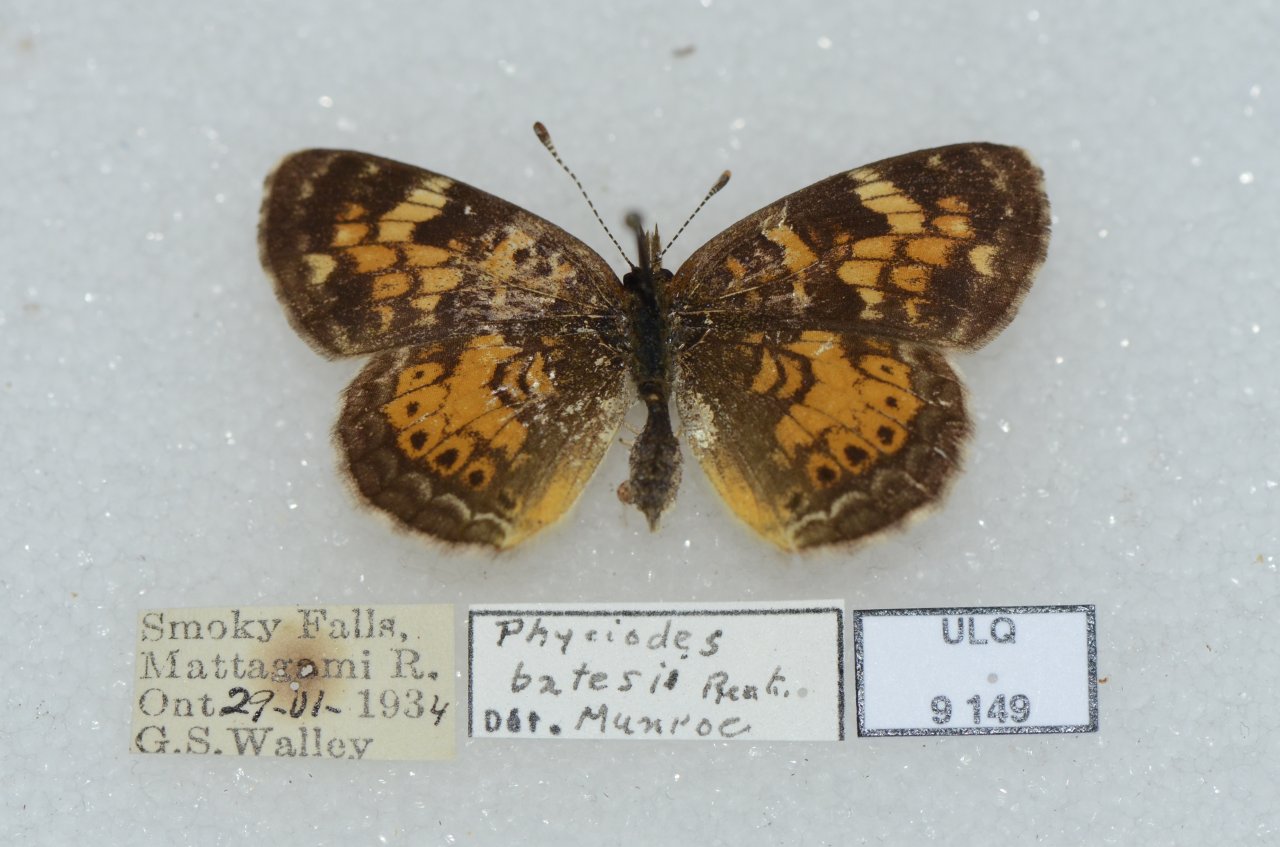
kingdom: Animalia
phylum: Arthropoda
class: Insecta
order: Lepidoptera
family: Nymphalidae
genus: Phyciodes
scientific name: Phyciodes tharos
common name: Northern Crescent
